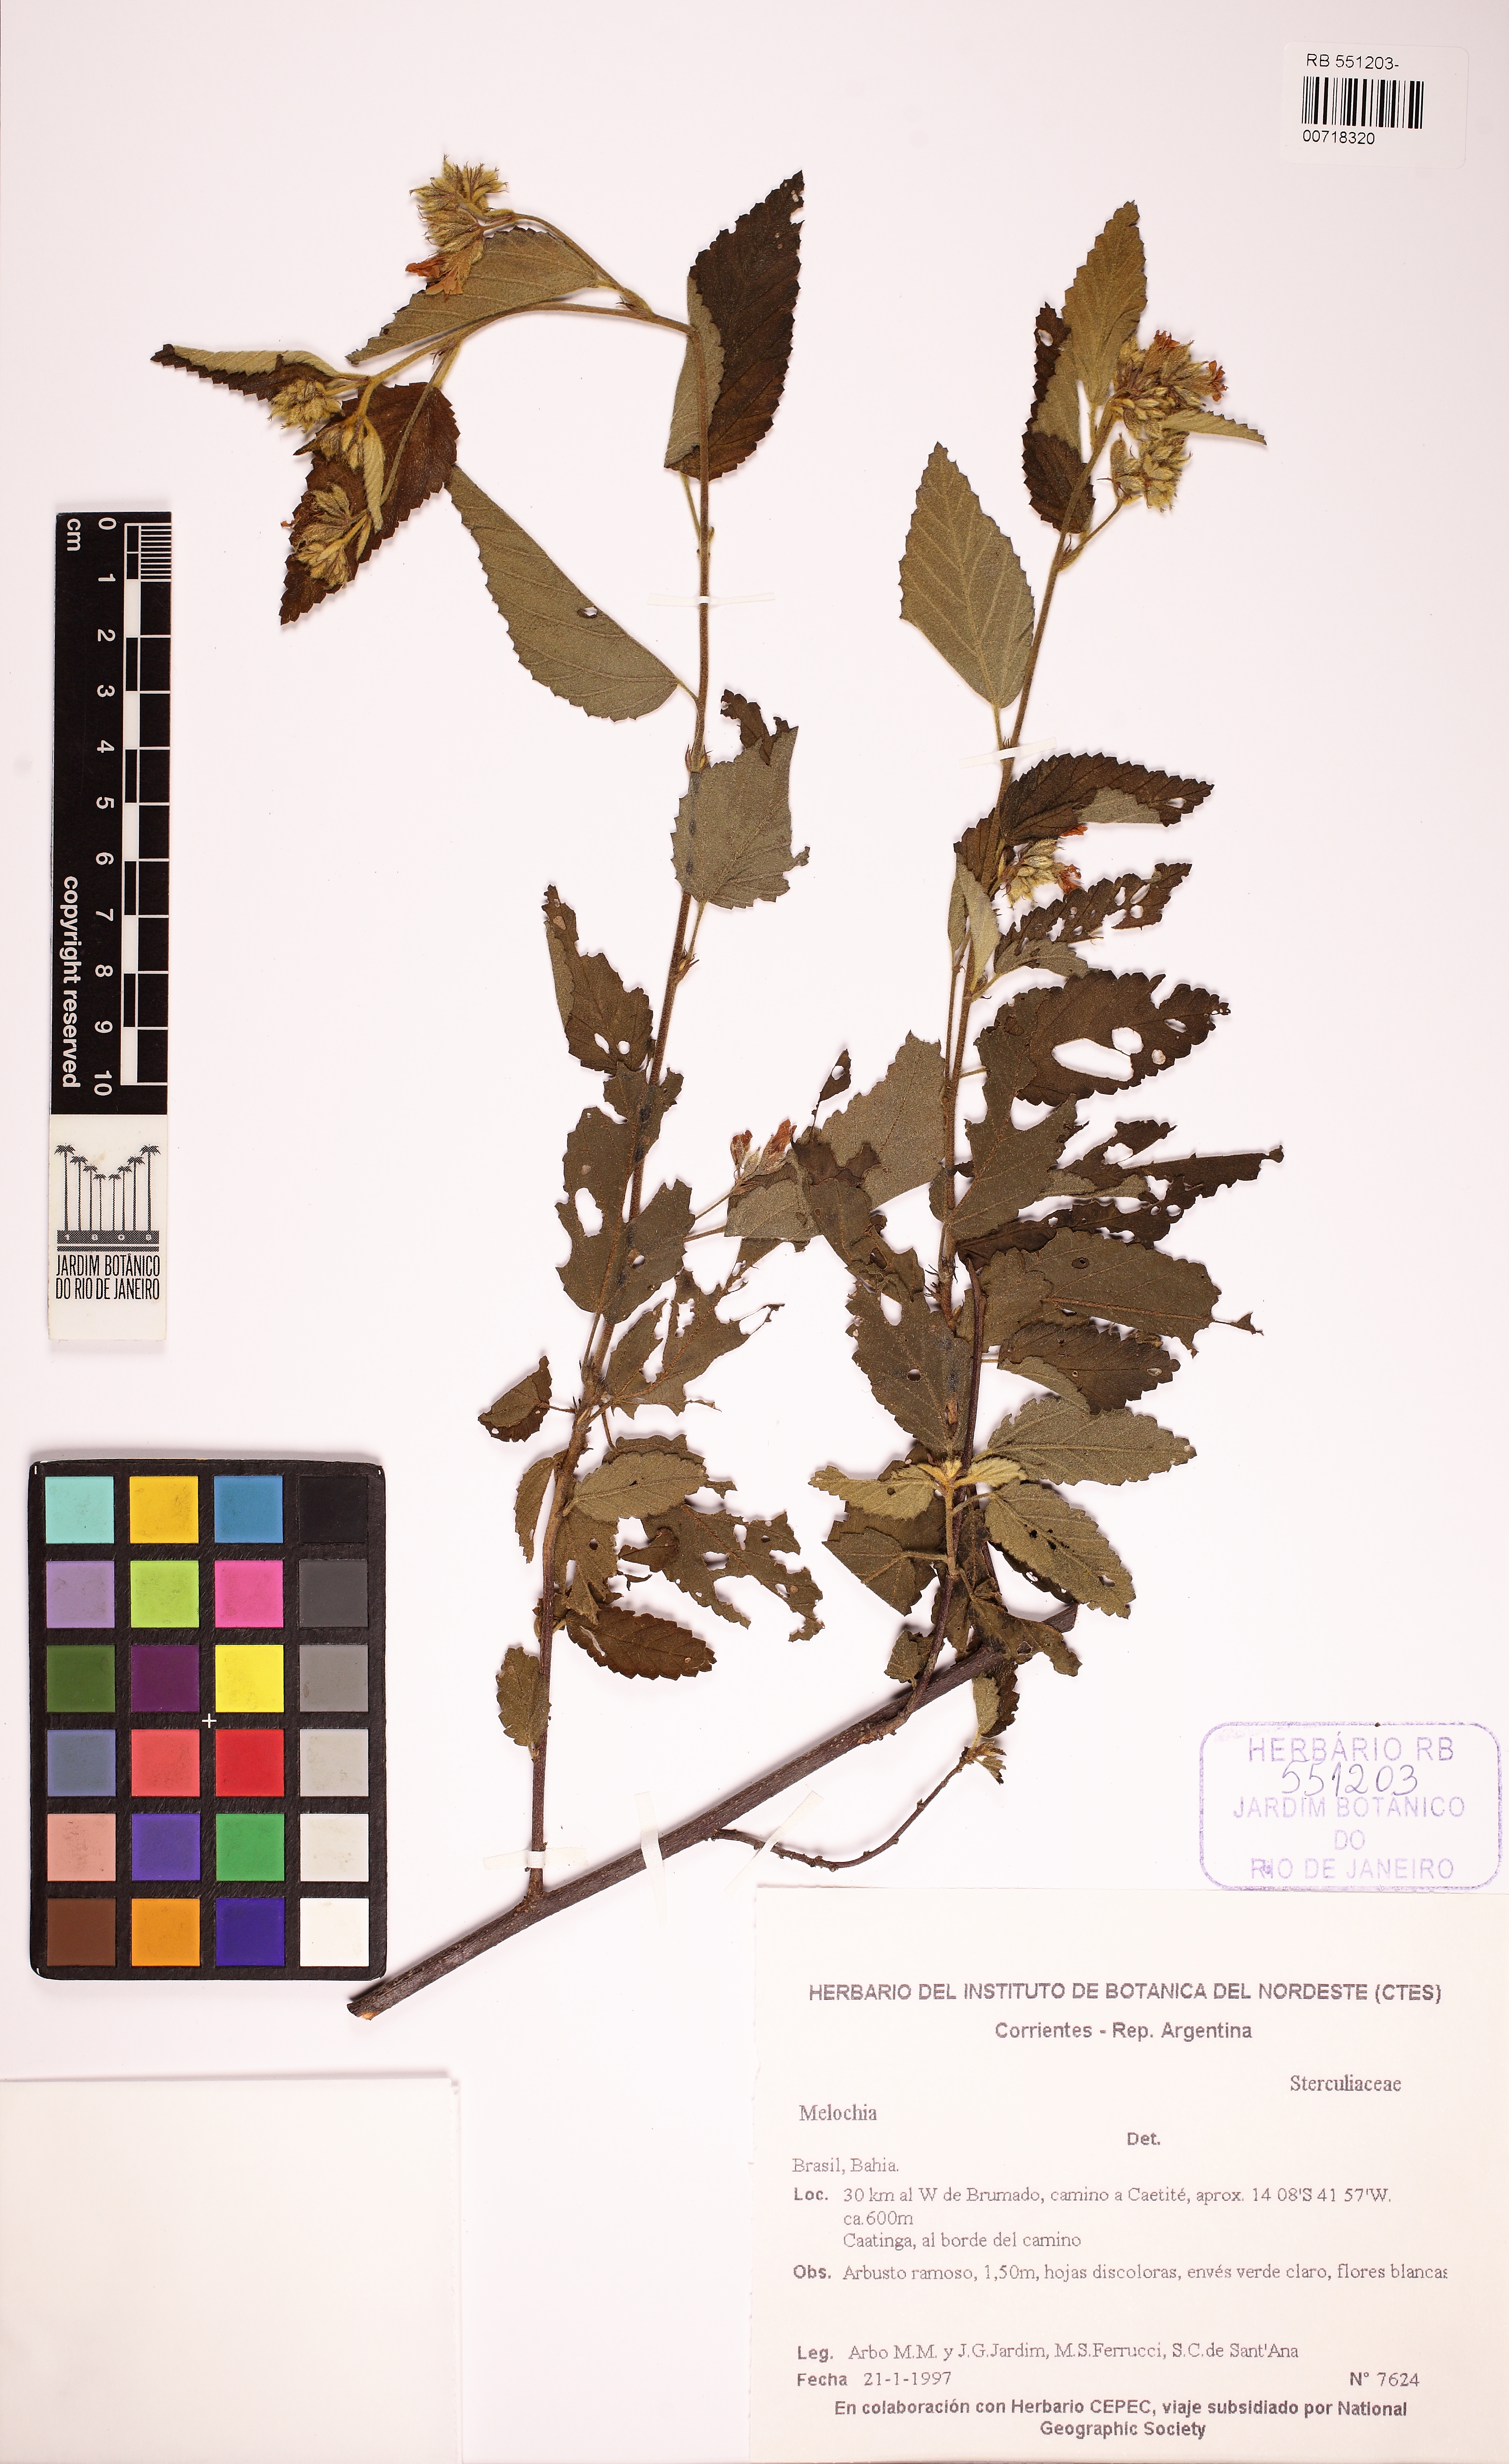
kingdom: Plantae
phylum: Tracheophyta
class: Magnoliopsida
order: Malvales
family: Malvaceae
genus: Melochia
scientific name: Melochia illicioides
